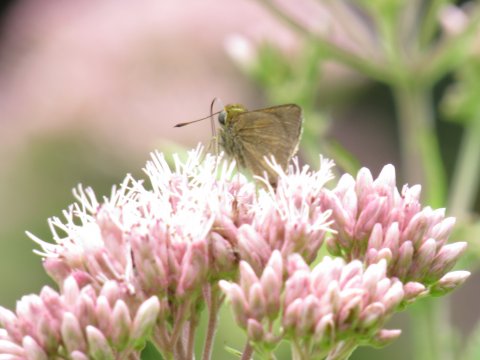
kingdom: Animalia
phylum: Arthropoda
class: Insecta
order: Lepidoptera
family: Hesperiidae
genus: Euphyes
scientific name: Euphyes
